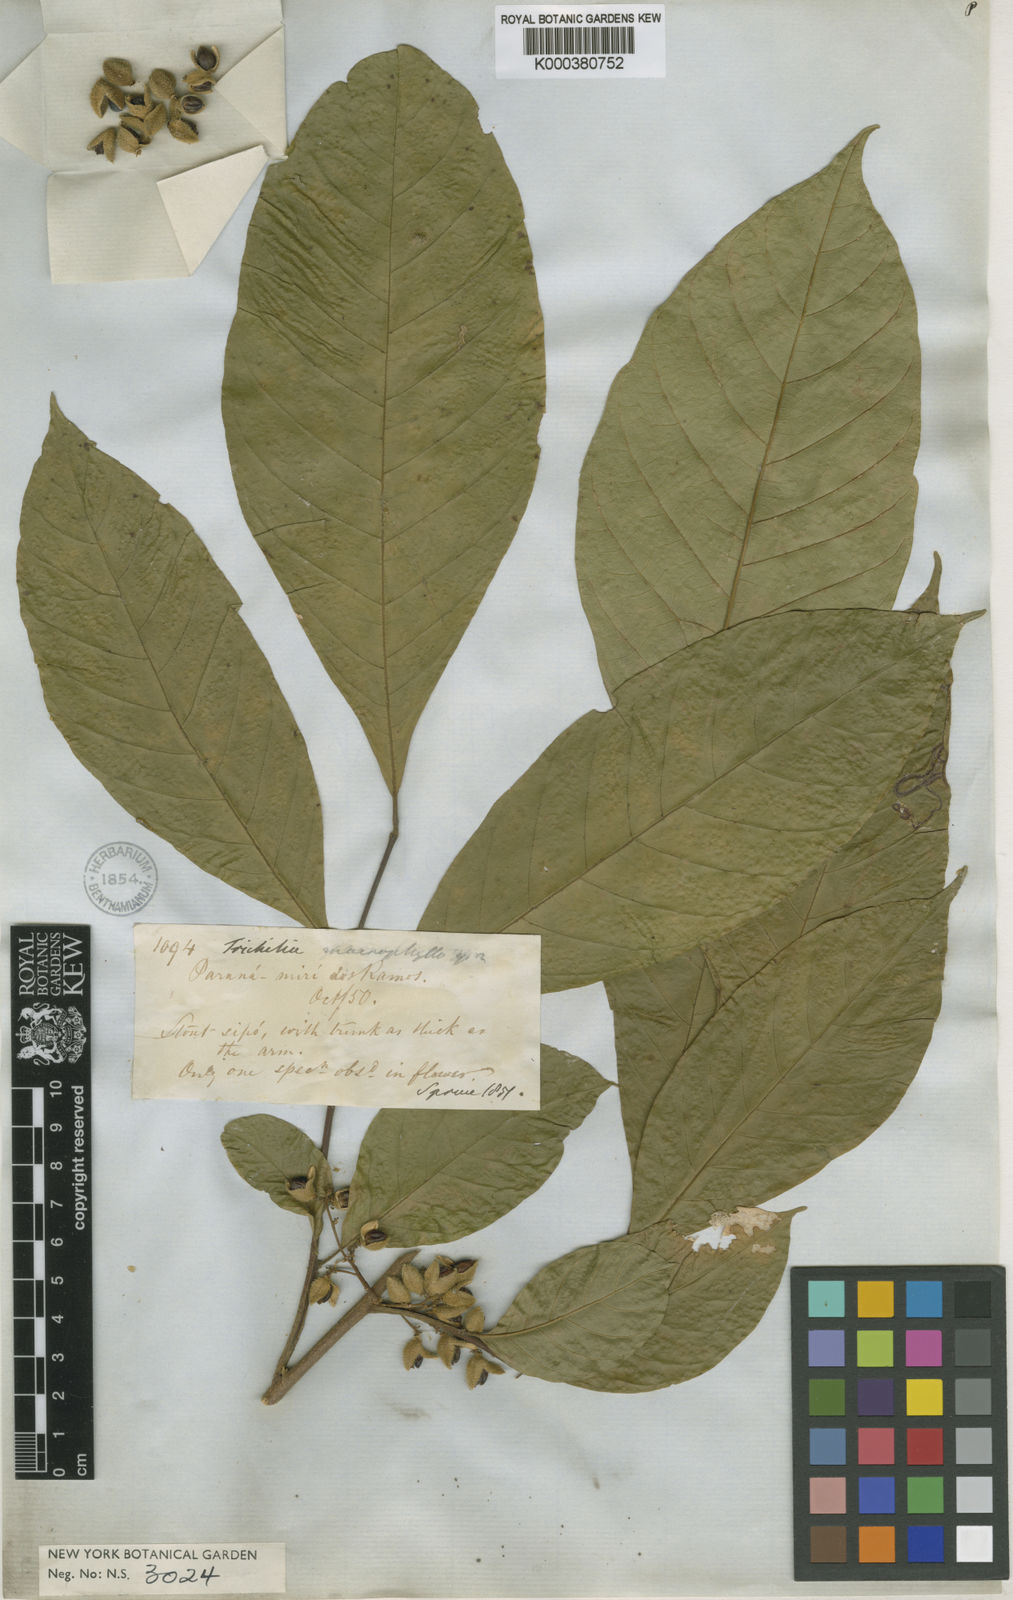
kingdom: Plantae
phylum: Tracheophyta
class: Magnoliopsida
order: Sapindales
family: Meliaceae
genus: Trichilia
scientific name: Trichilia pallida
